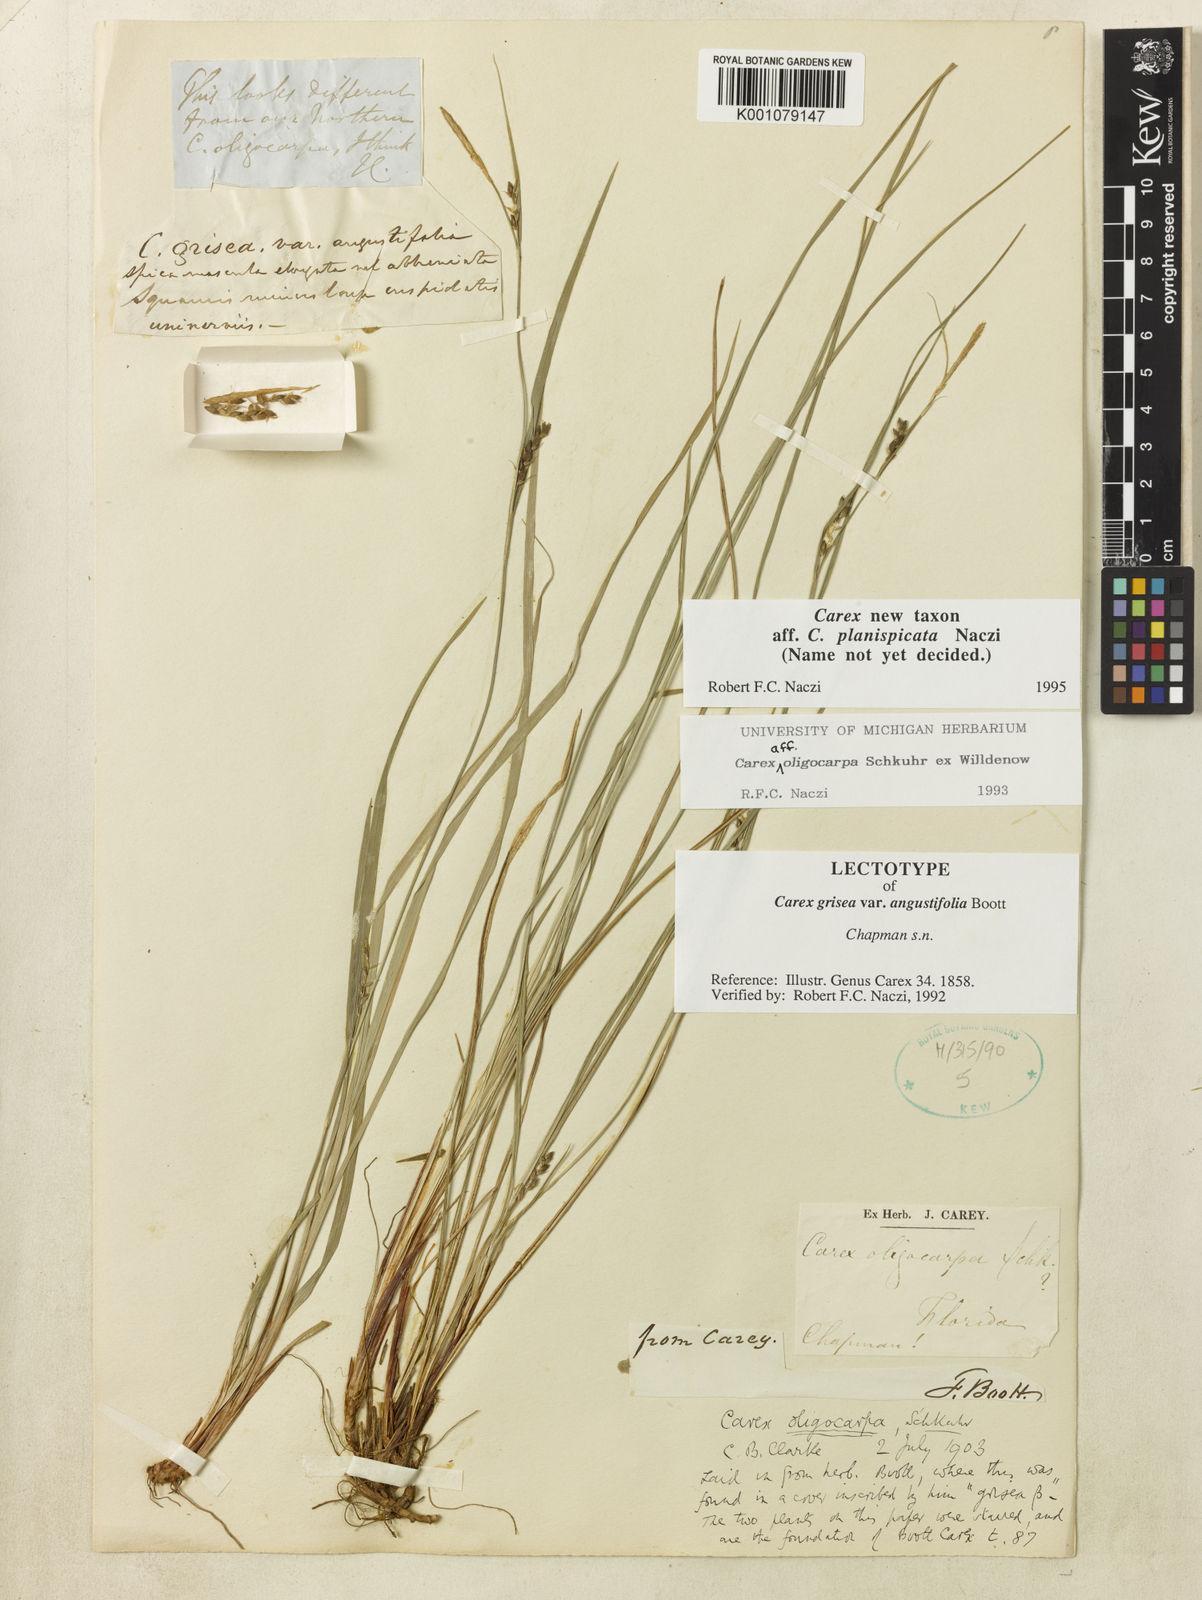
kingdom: Plantae
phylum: Tracheophyta
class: Liliopsida
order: Poales
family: Cyperaceae
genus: Carex
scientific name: Carex planispicata
